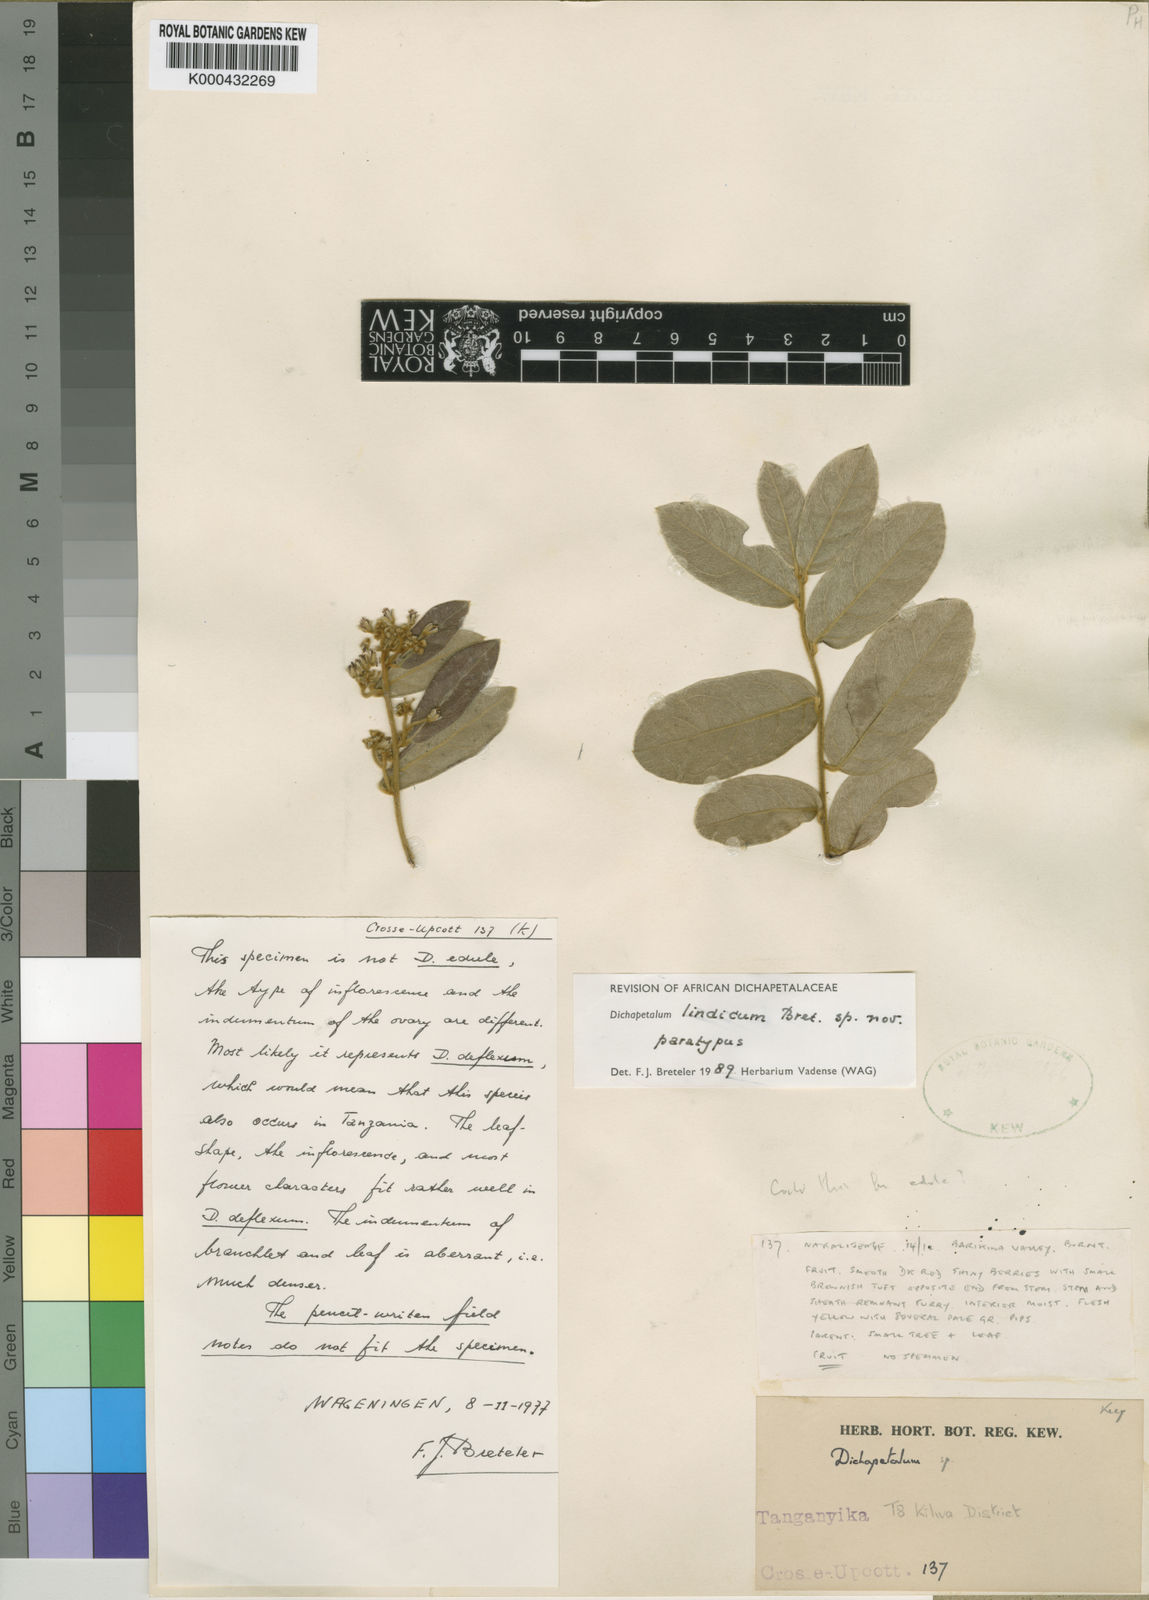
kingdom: Plantae
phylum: Tracheophyta
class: Magnoliopsida
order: Malpighiales
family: Dichapetalaceae
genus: Dichapetalum
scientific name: Dichapetalum lindicum
